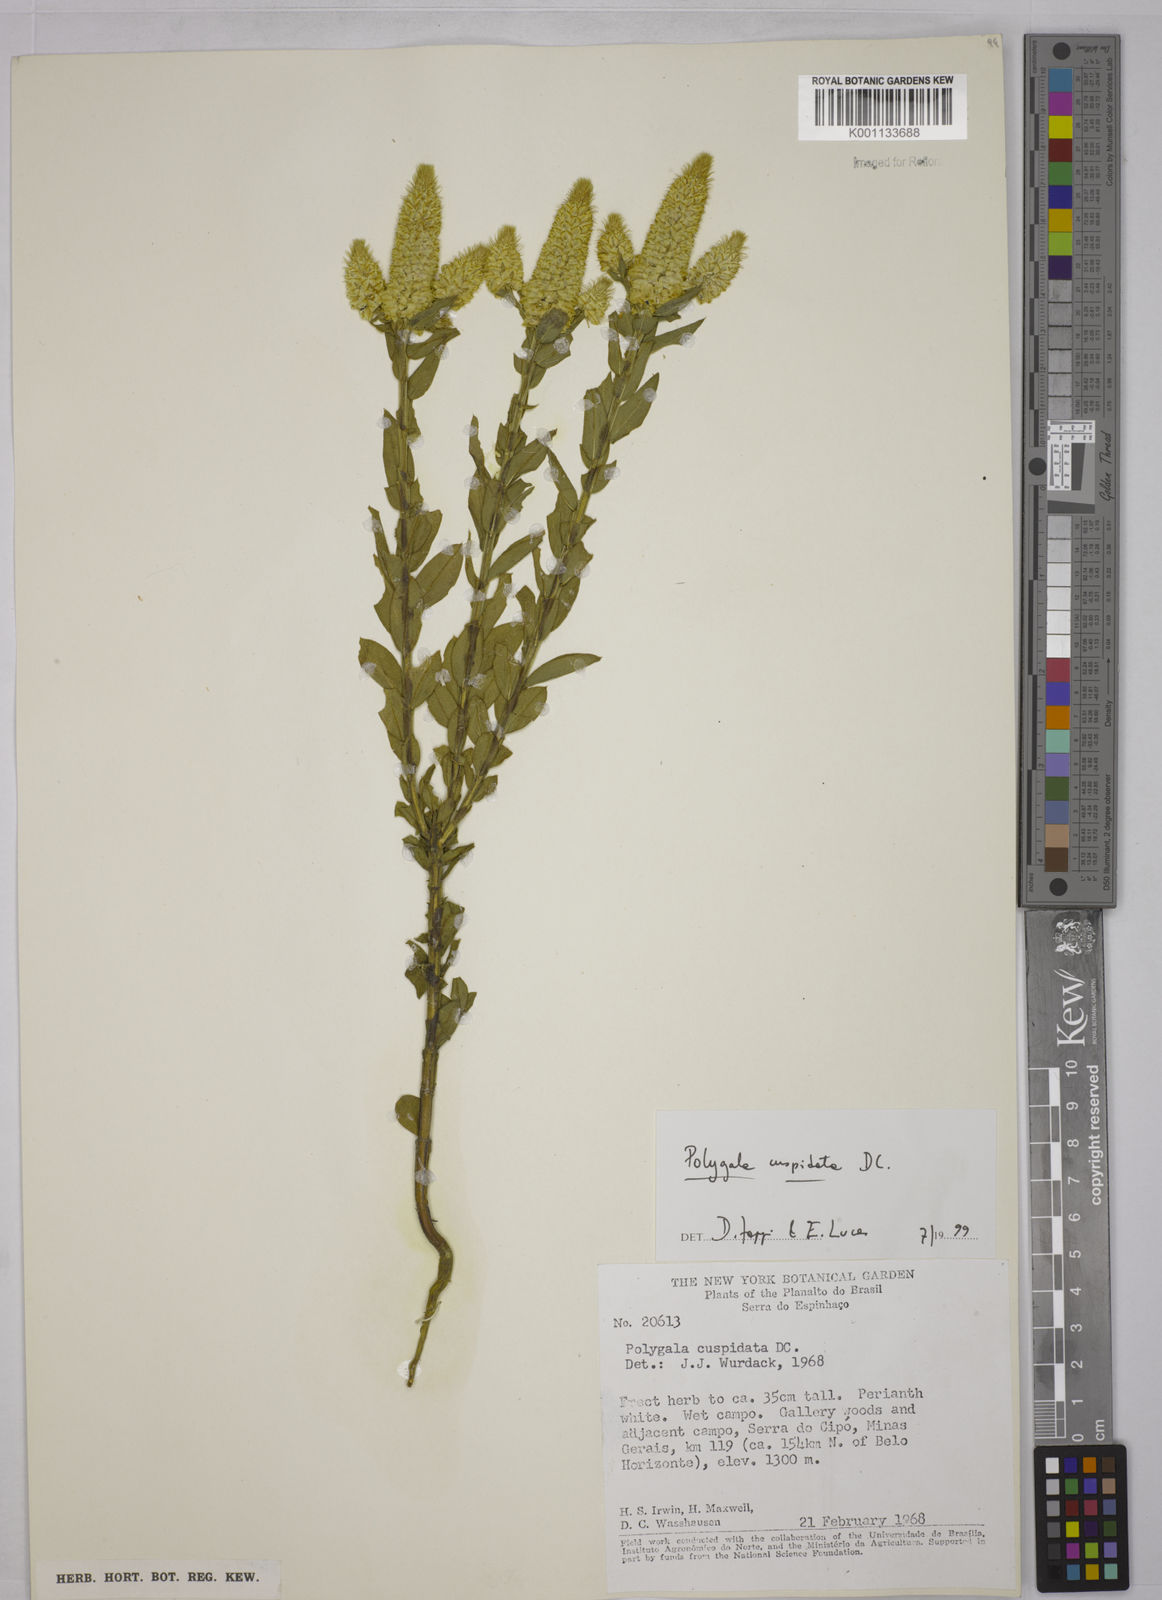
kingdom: Plantae
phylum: Tracheophyta
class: Magnoliopsida
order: Fabales
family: Polygalaceae
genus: Polygala
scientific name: Polygala cuspidata
